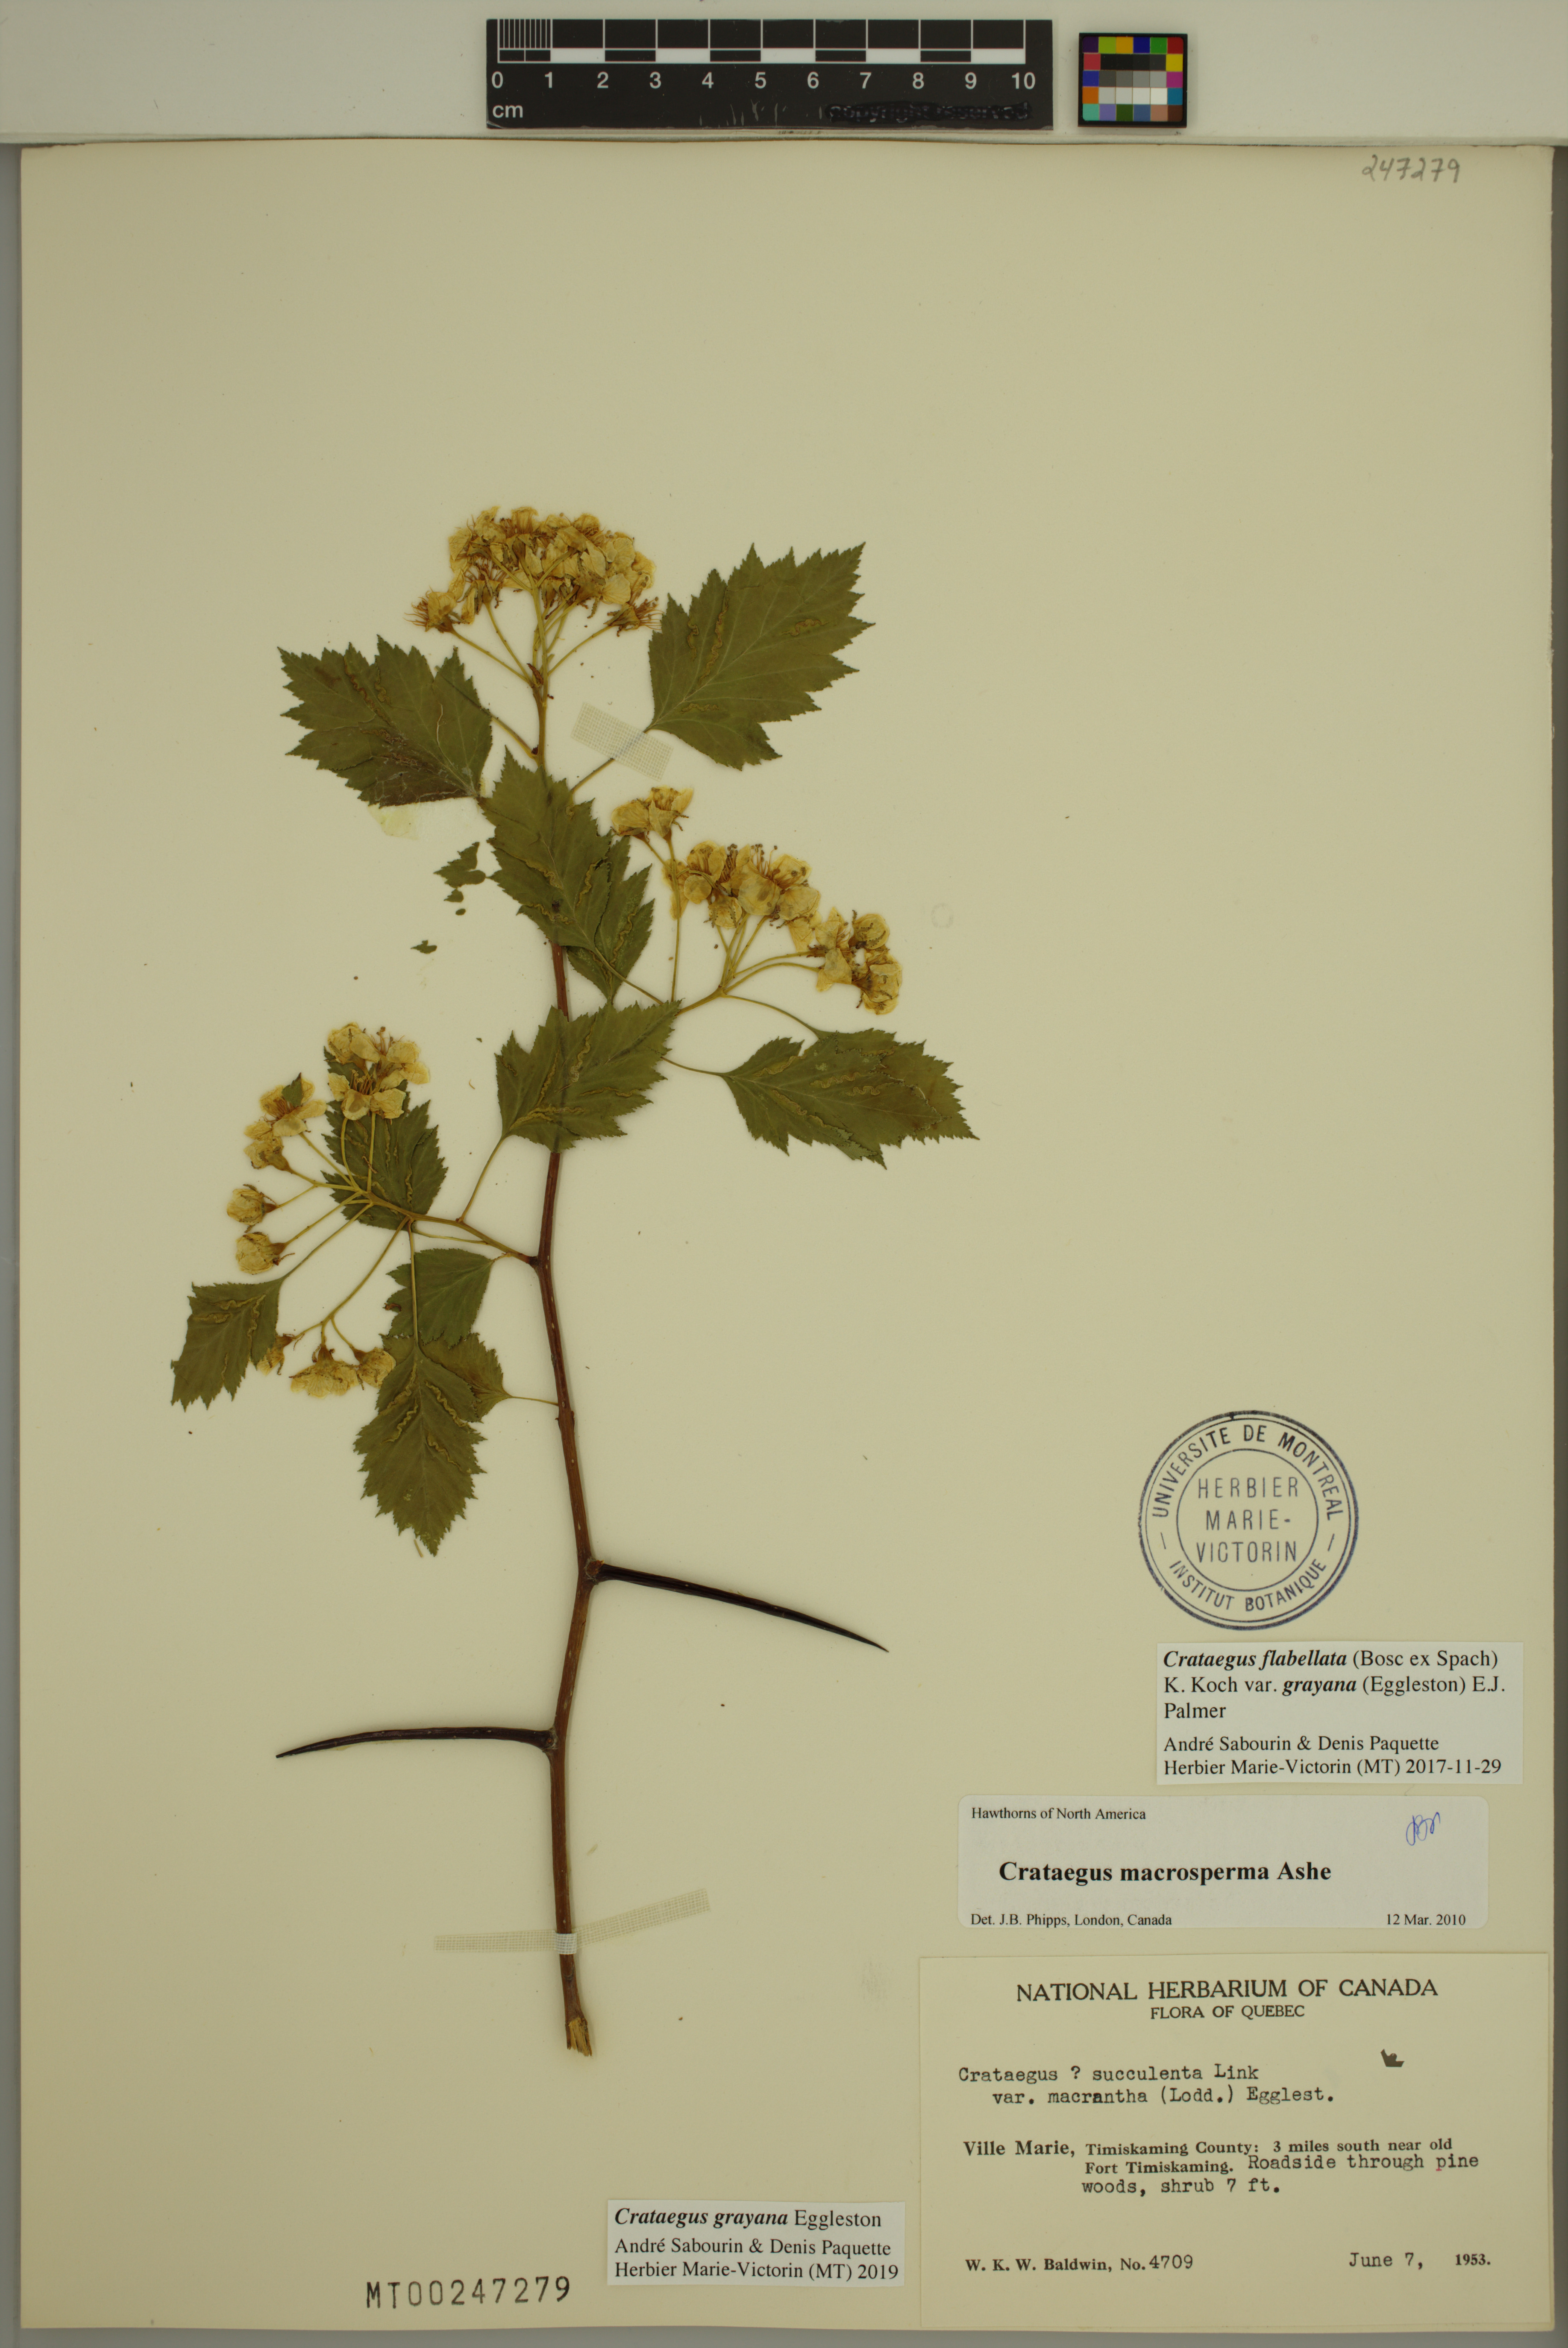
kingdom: Plantae
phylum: Tracheophyta
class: Magnoliopsida
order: Rosales
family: Rosaceae
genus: Crataegus
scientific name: Crataegus schuettei
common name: Schuette's hawthorn
